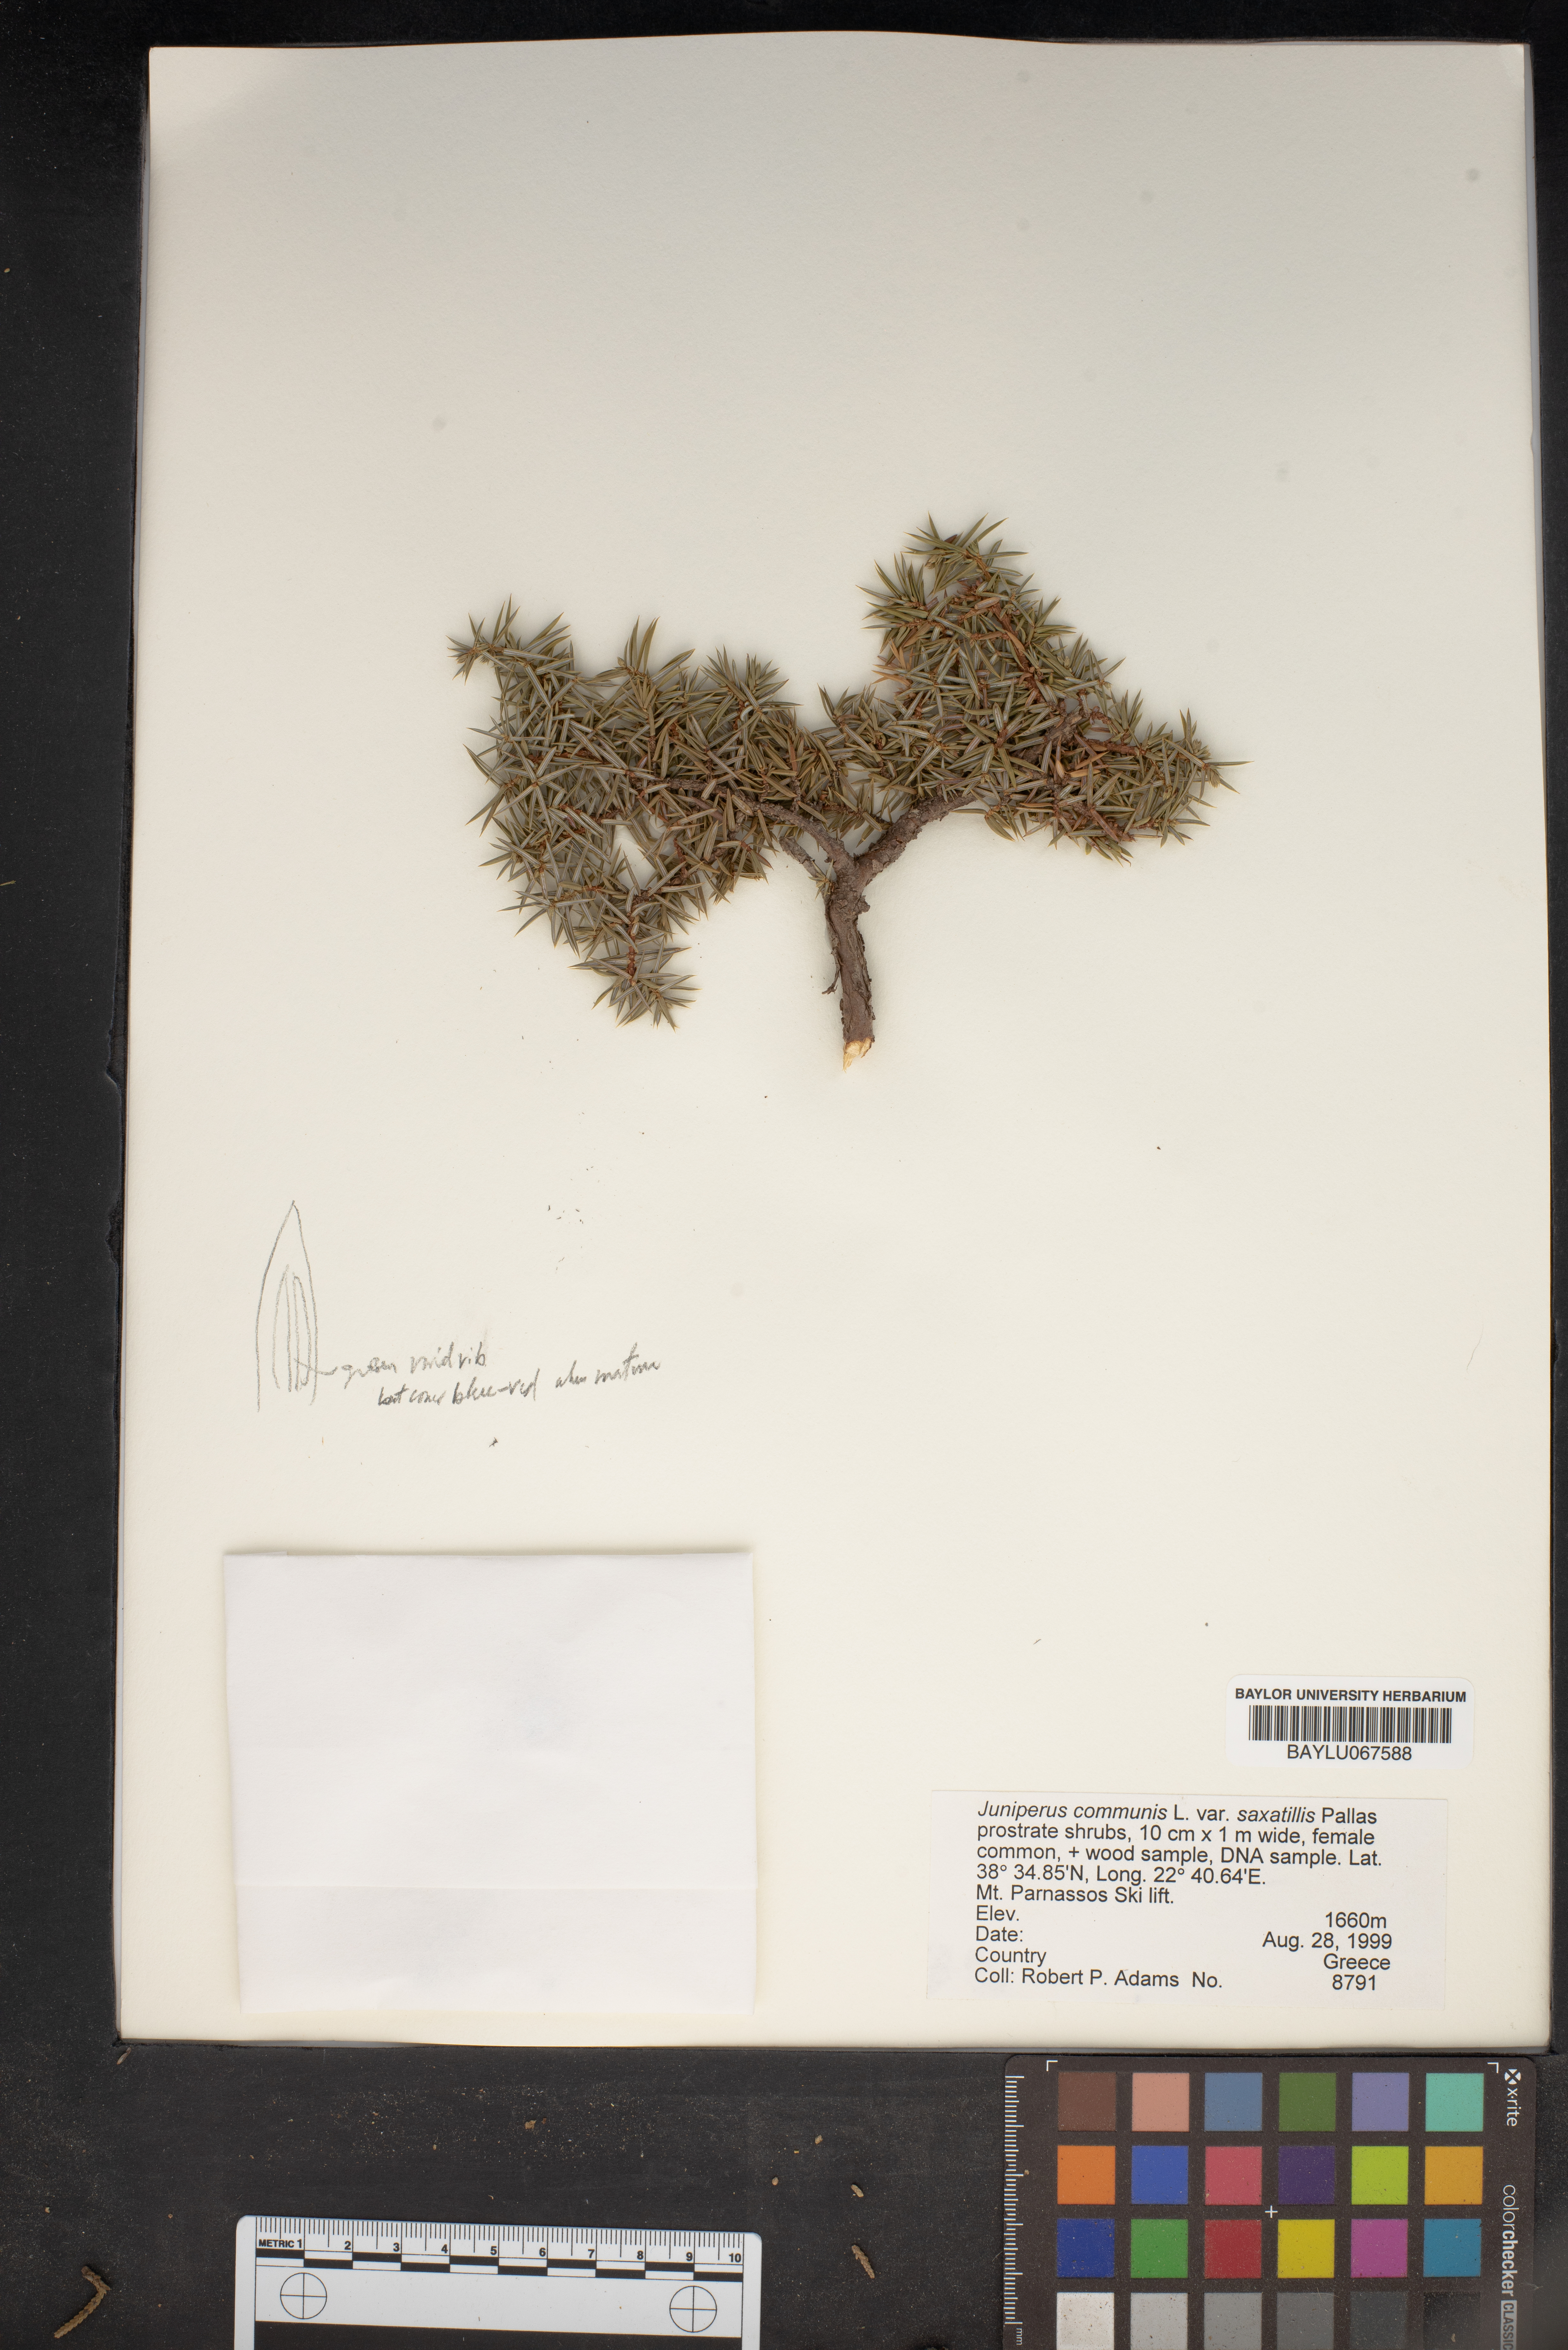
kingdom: Plantae
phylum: Tracheophyta
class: Pinopsida
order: Pinales
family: Cupressaceae
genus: Juniperus
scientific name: Juniperus communis
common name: Common juniper
